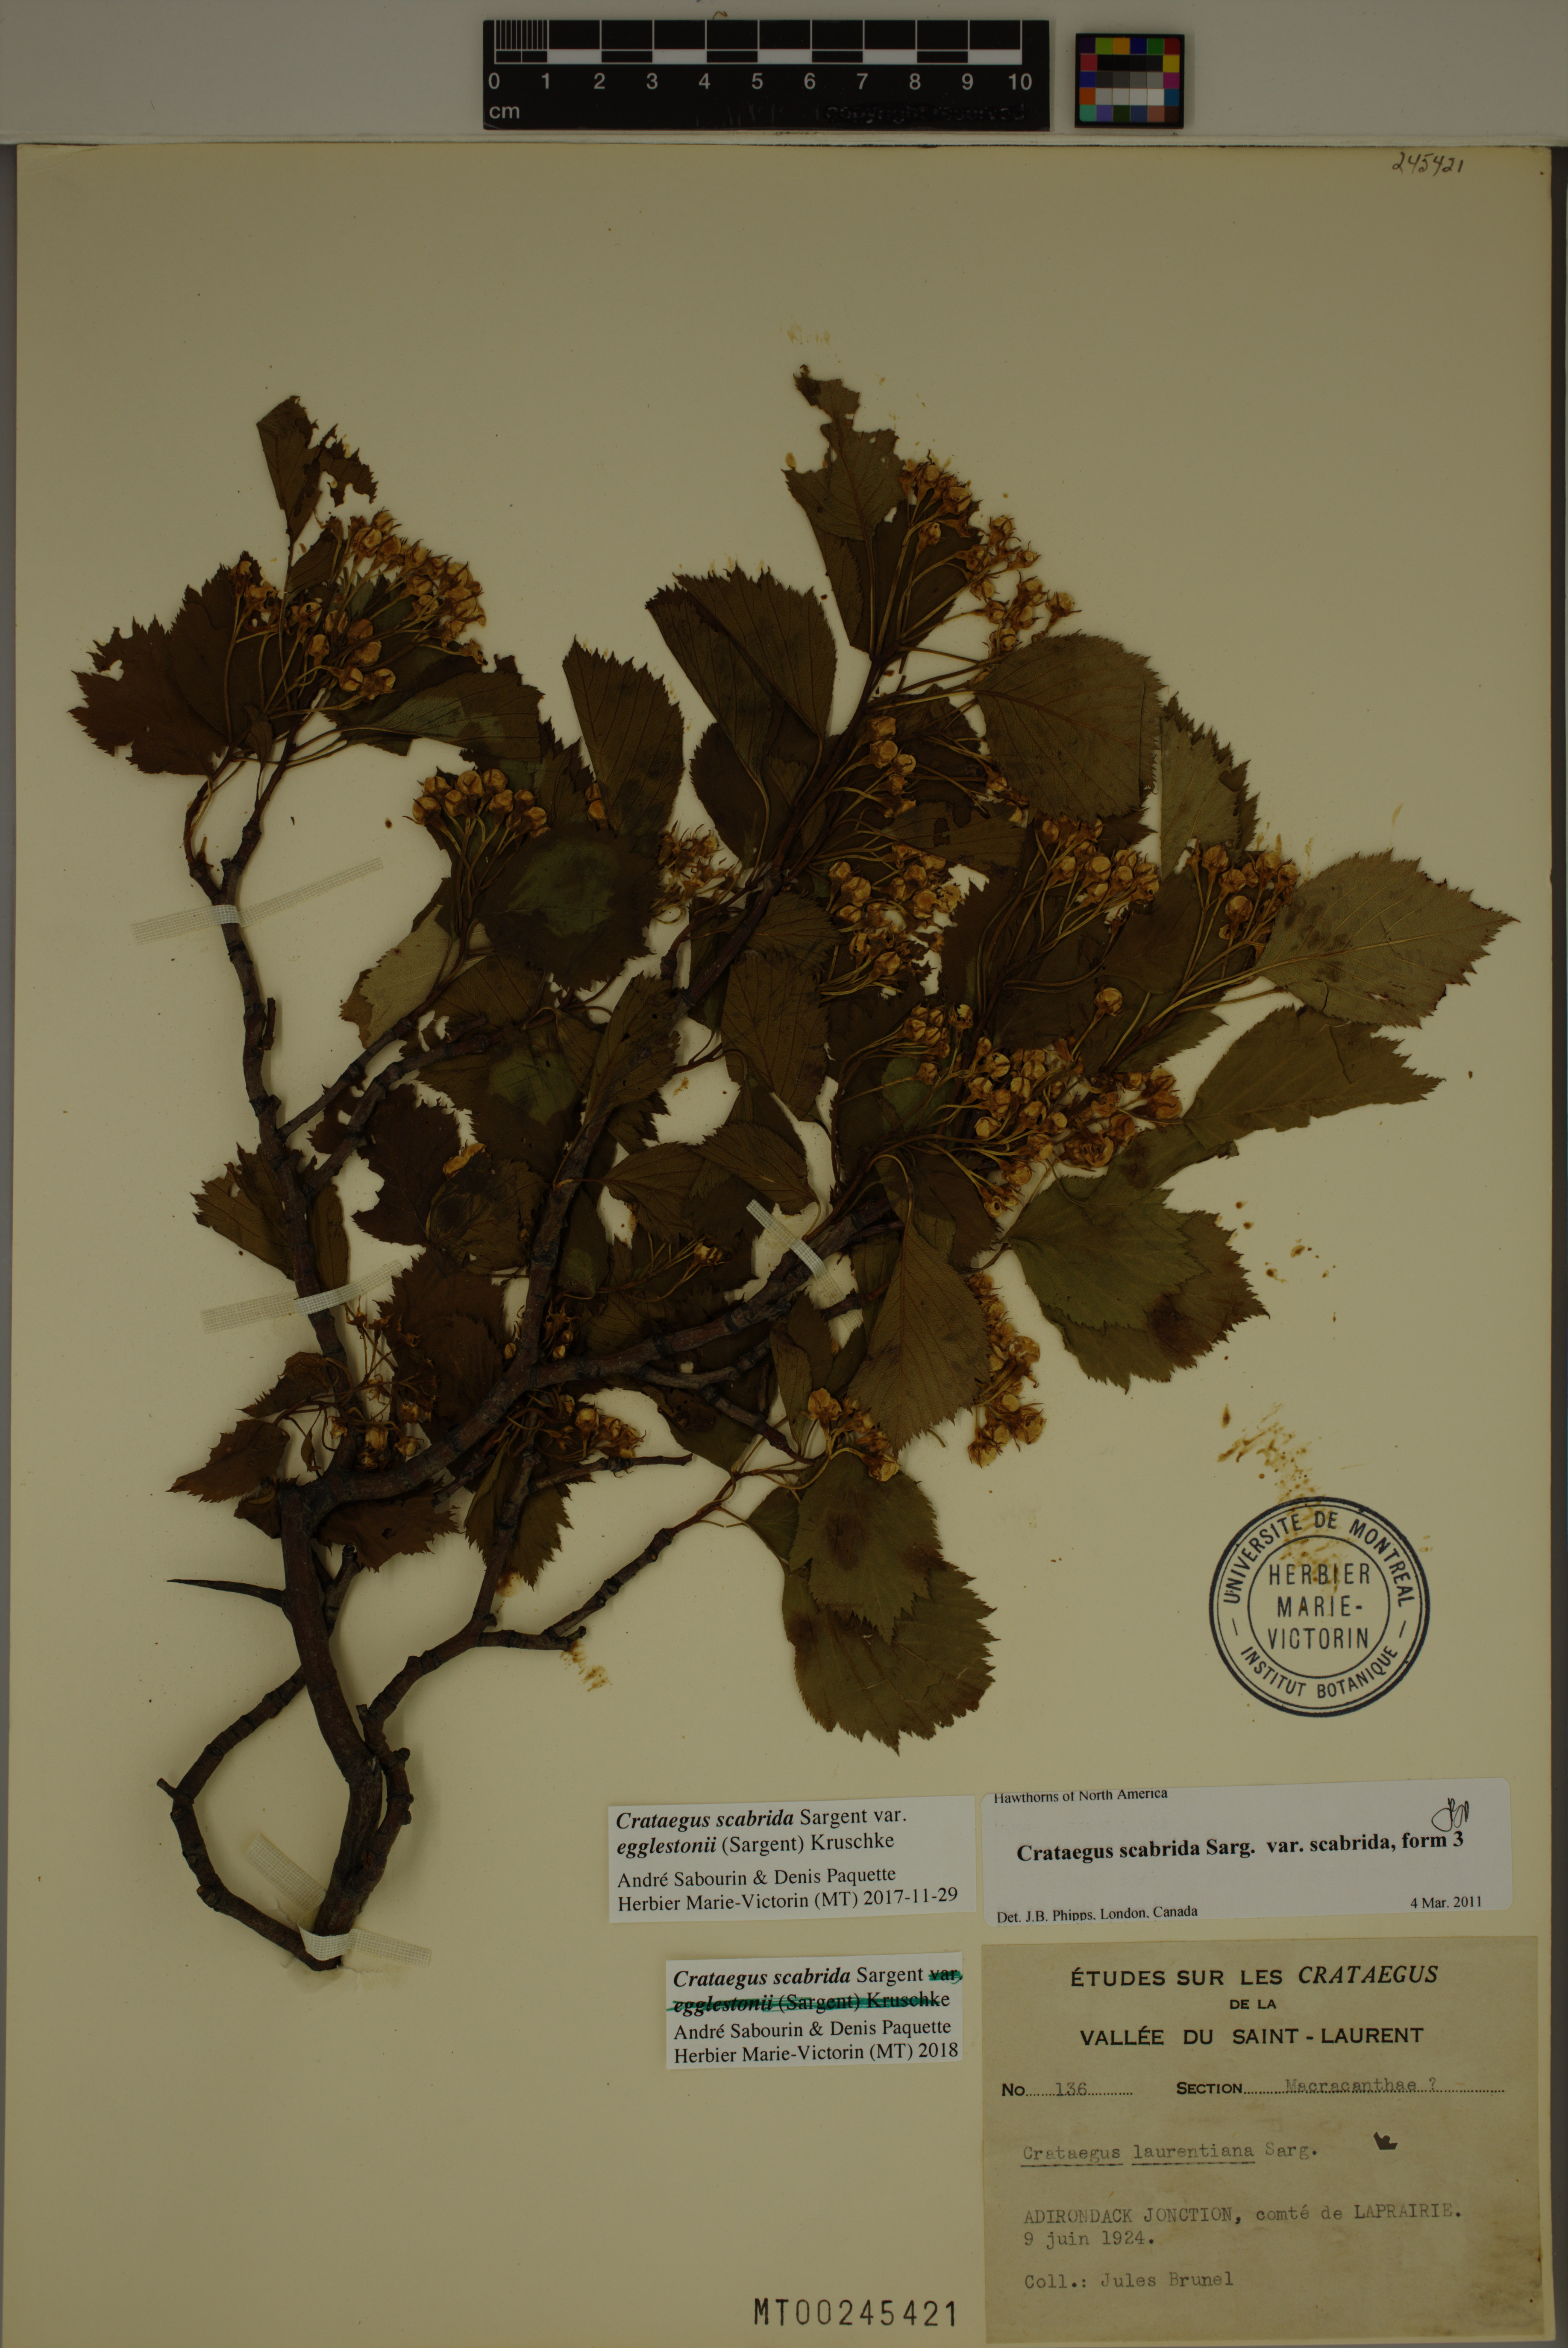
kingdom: Plantae
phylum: Tracheophyta
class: Magnoliopsida
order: Rosales
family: Rosaceae
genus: Crataegus
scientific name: Crataegus scabrida
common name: Rough hawthorn
